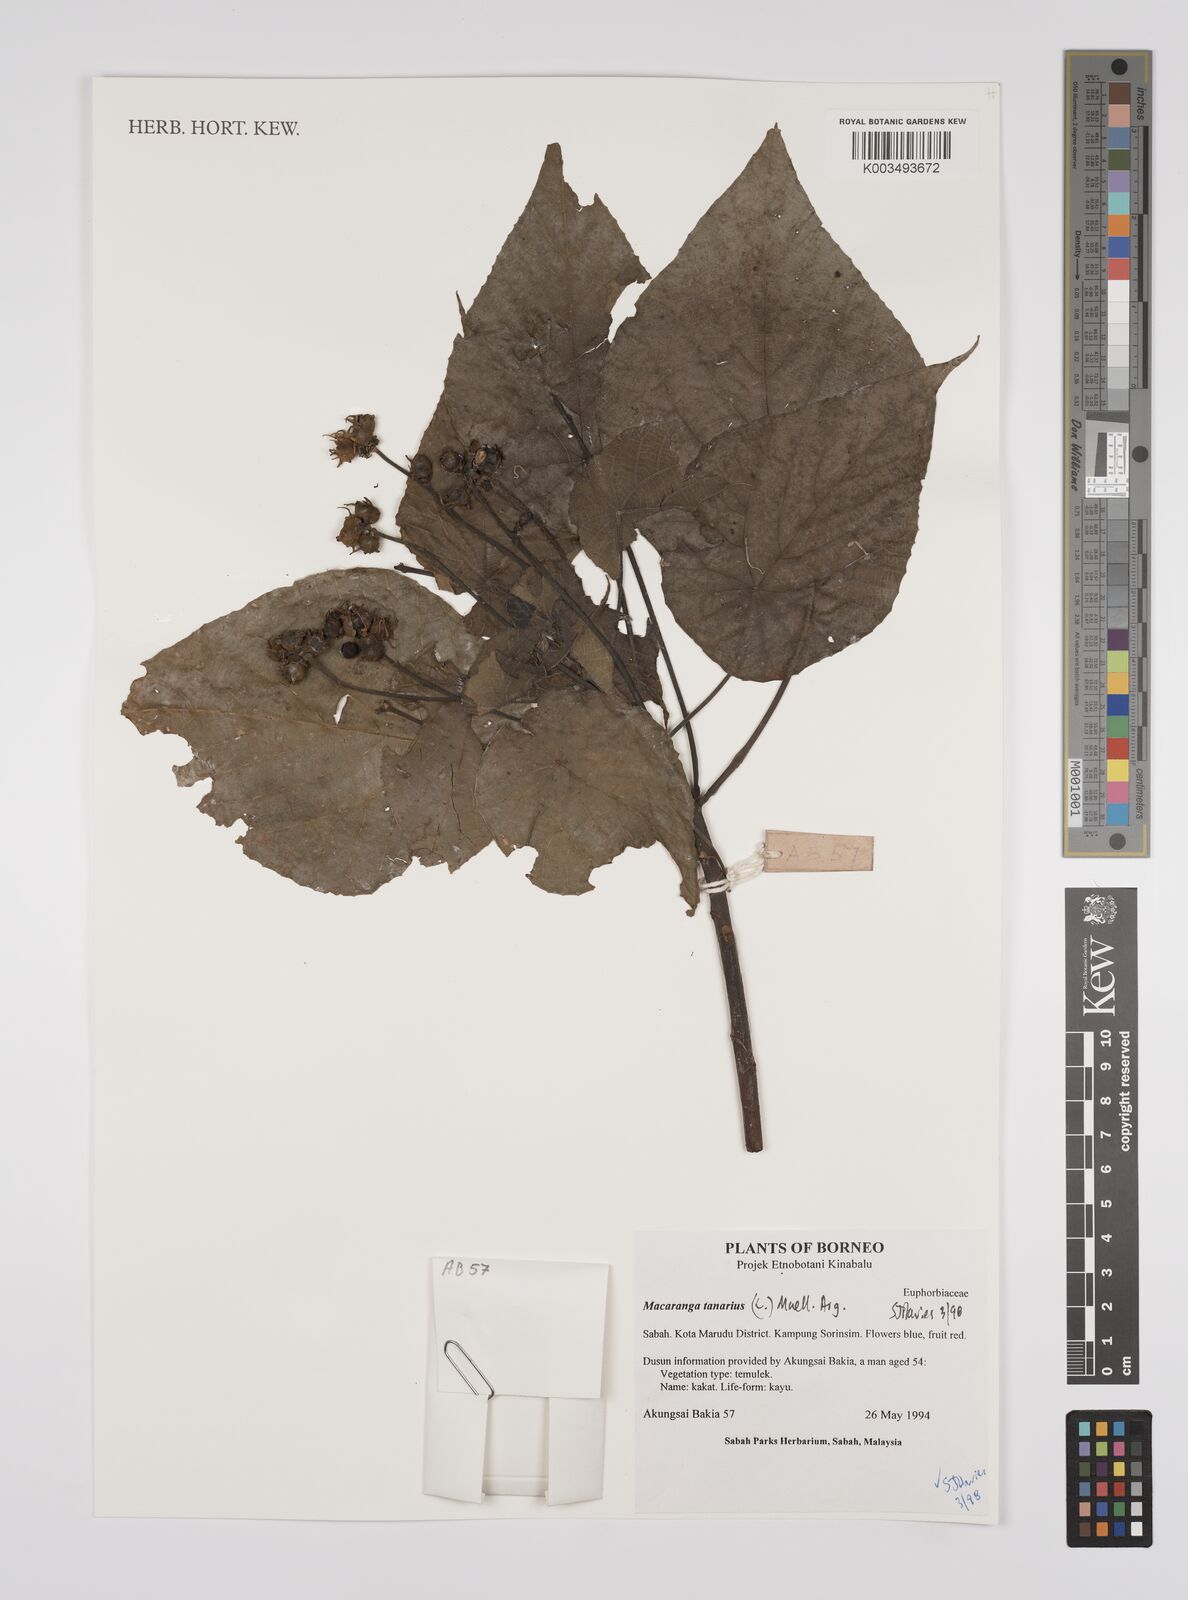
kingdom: Plantae
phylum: Tracheophyta
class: Magnoliopsida
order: Malpighiales
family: Euphorbiaceae
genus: Macaranga
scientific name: Macaranga tanarius
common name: Parasol leaf tree
